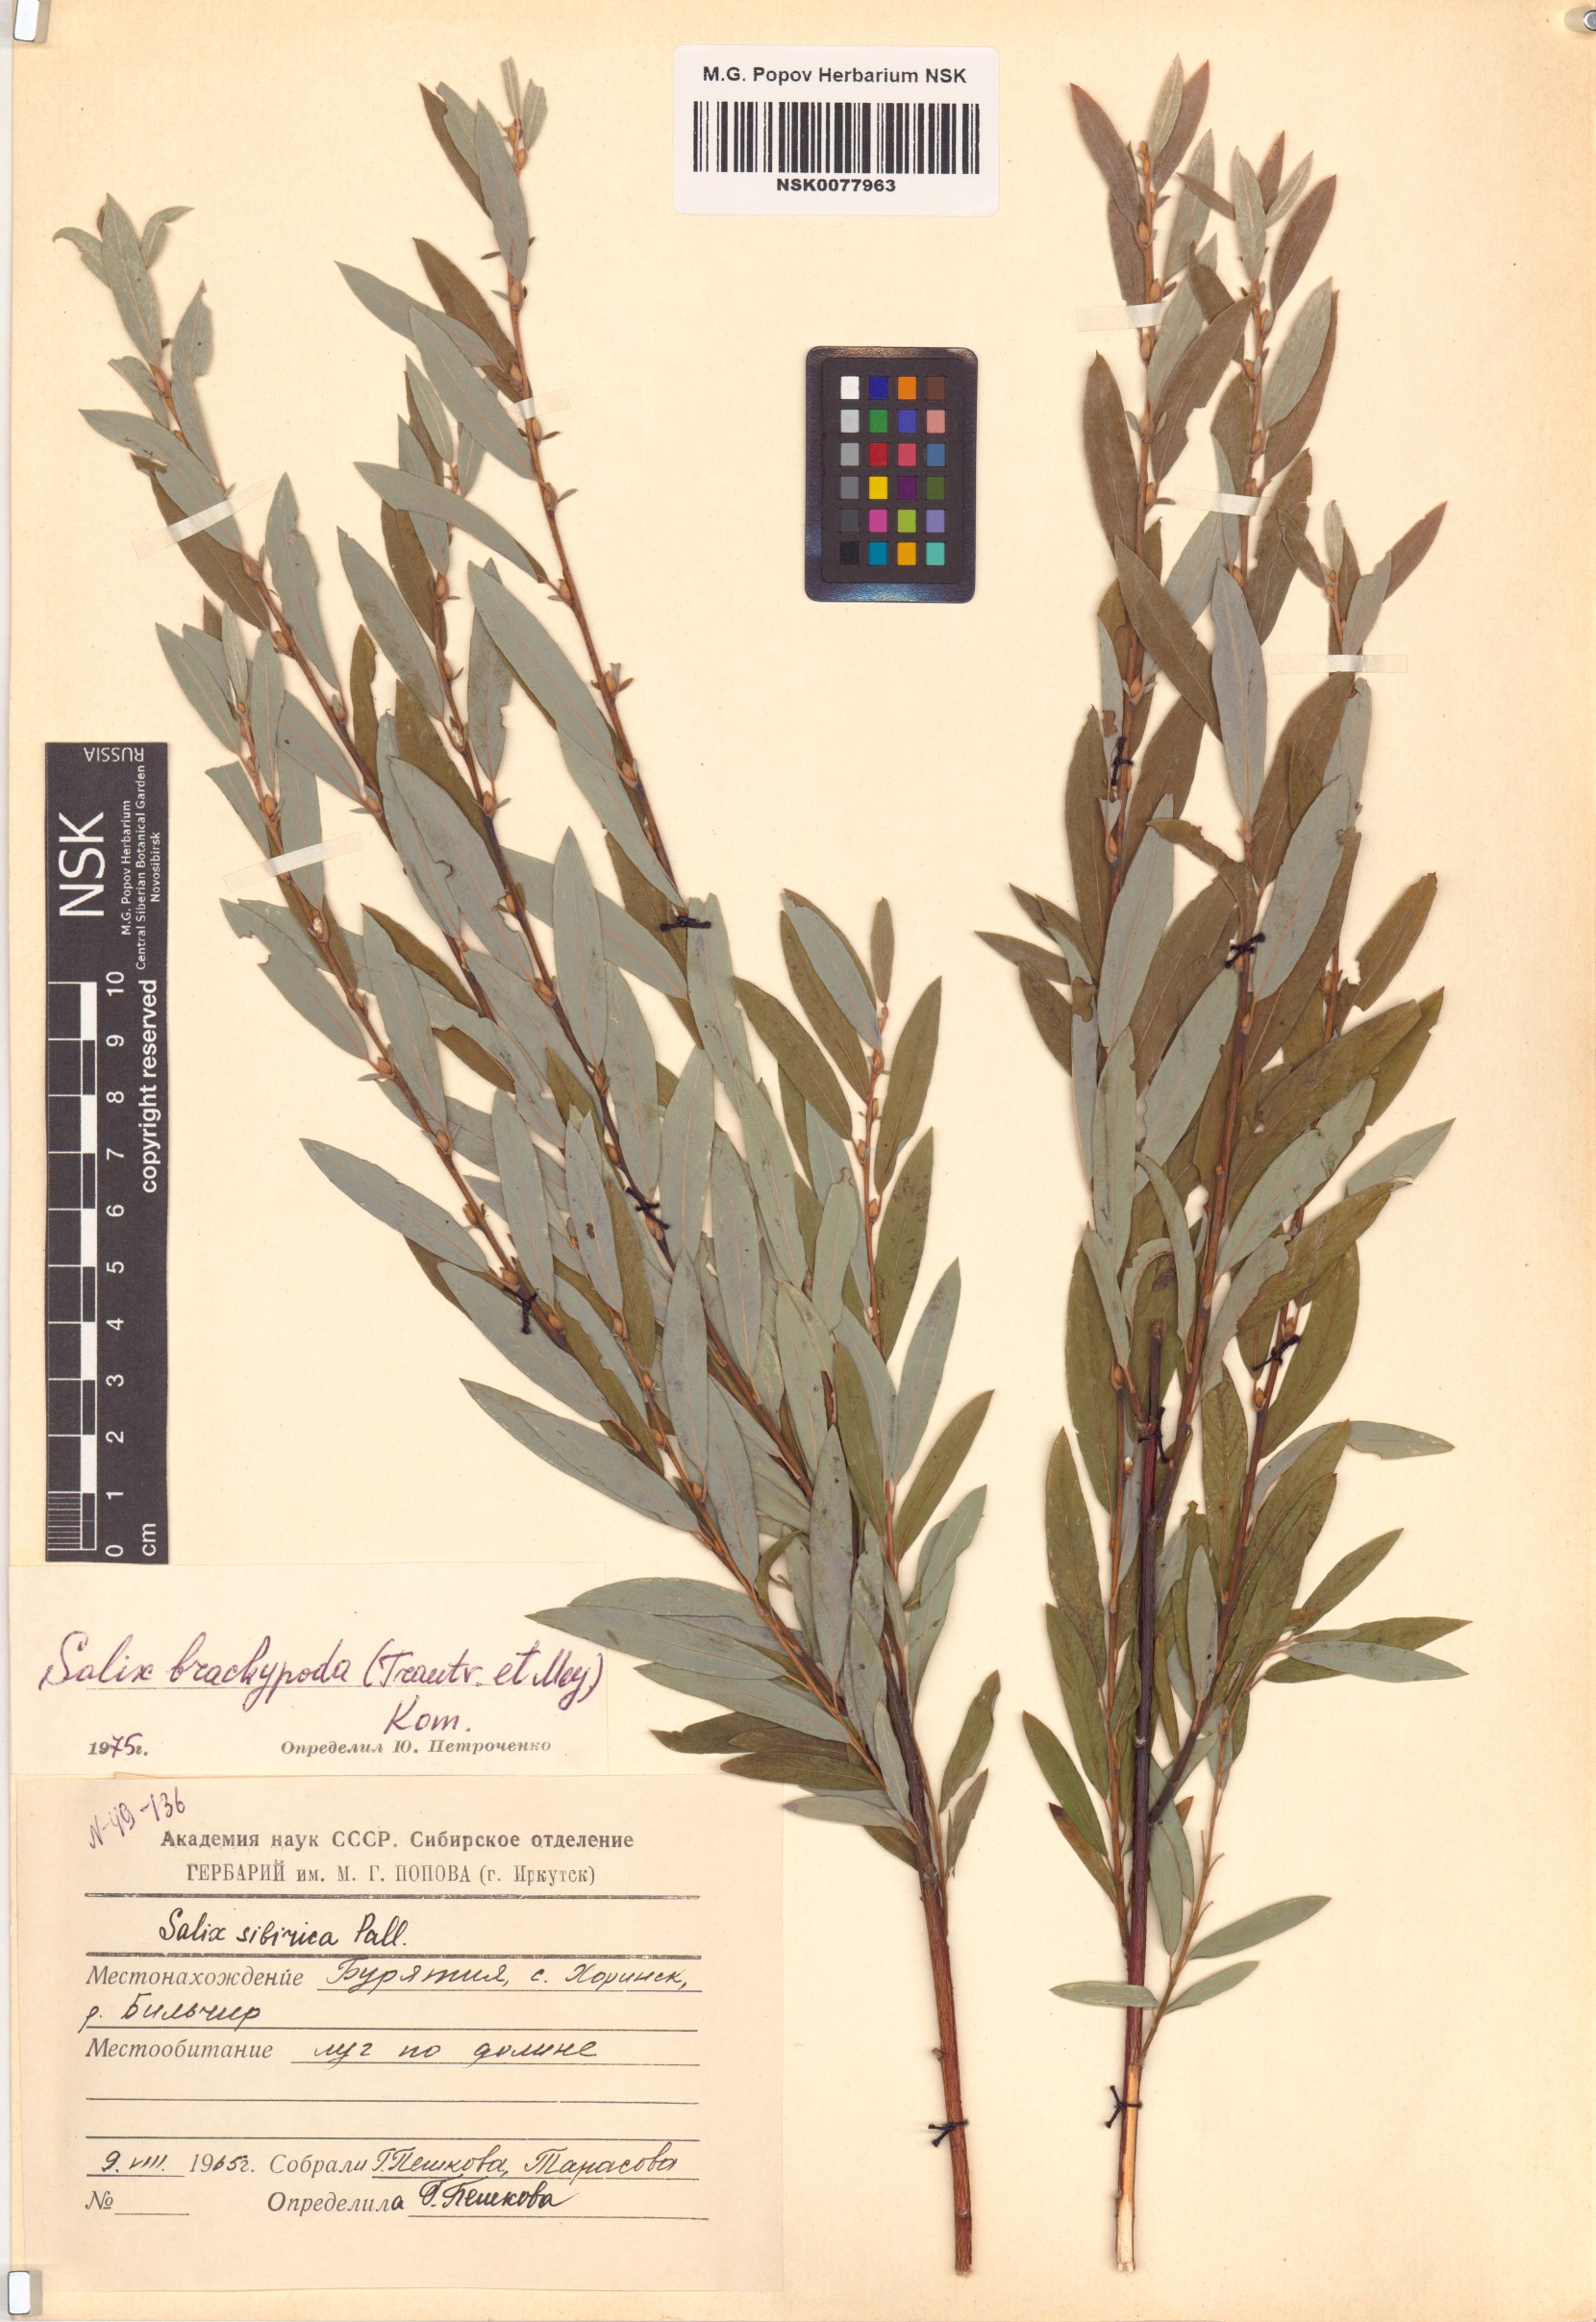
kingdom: Plantae
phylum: Tracheophyta
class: Magnoliopsida
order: Malpighiales
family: Salicaceae
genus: Salix
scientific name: Salix brachypoda
